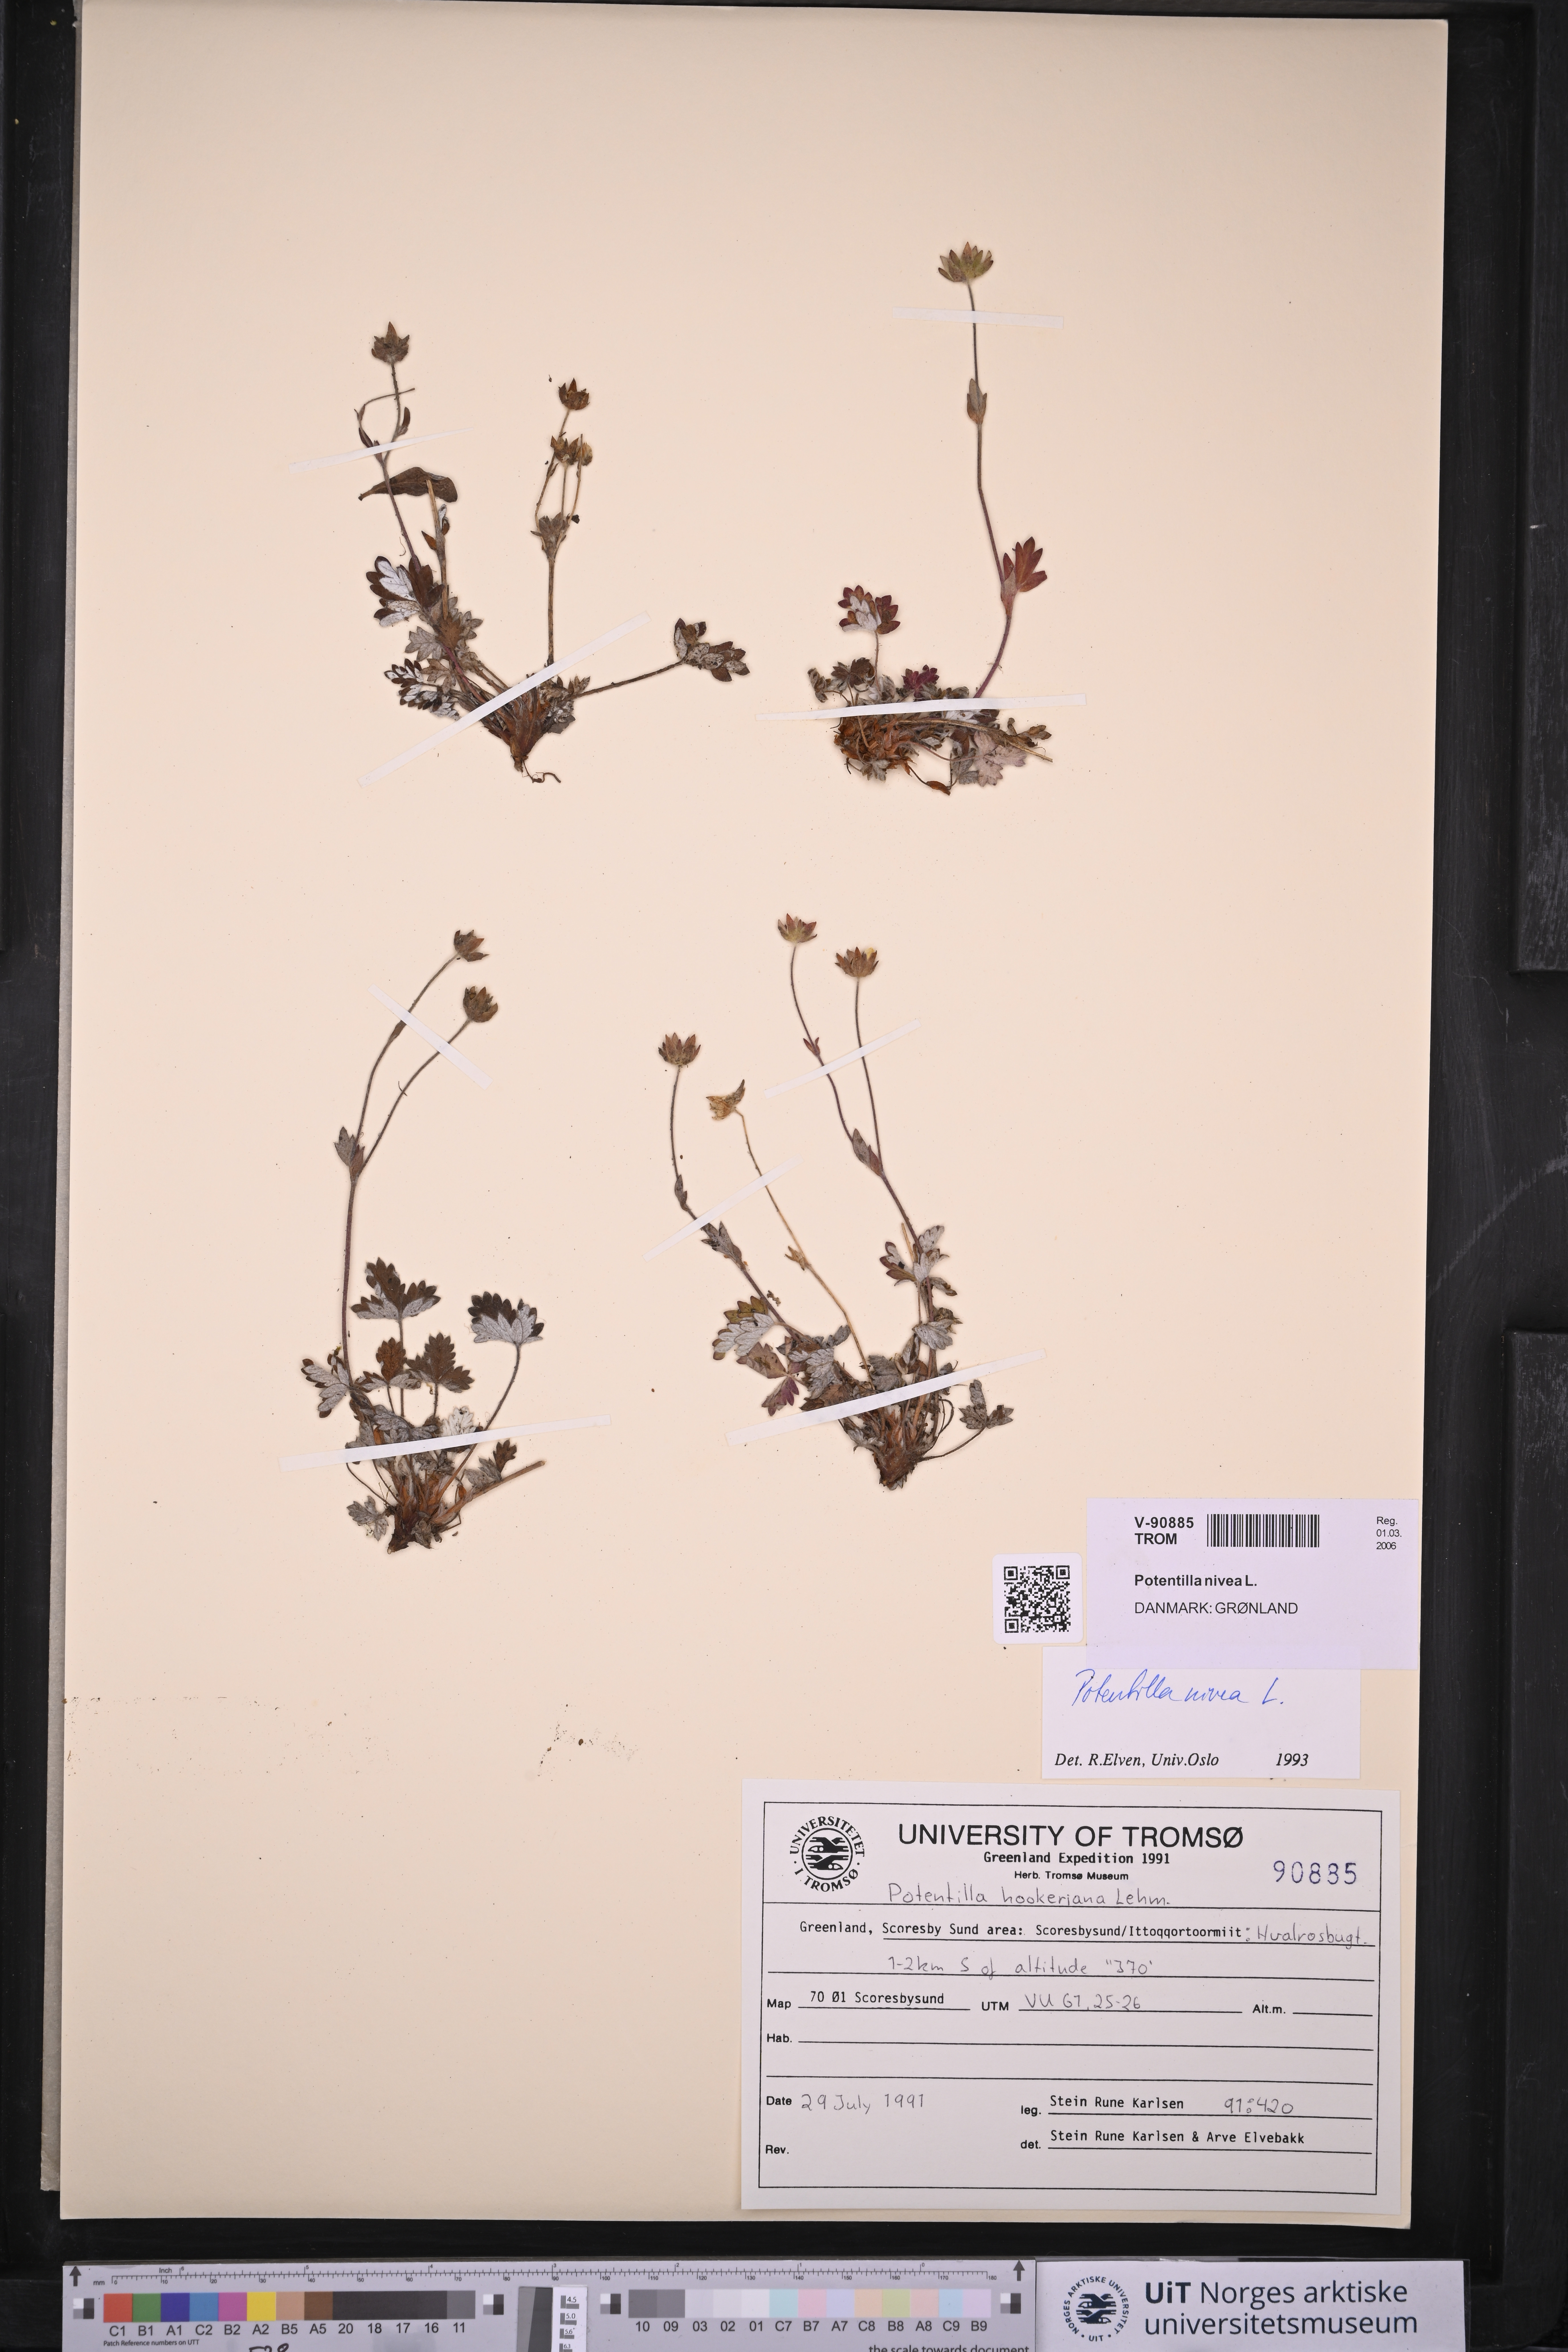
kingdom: Plantae
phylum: Tracheophyta
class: Magnoliopsida
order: Rosales
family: Rosaceae
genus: Potentilla
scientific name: Potentilla arenosa
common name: Bluff cinquefoil
